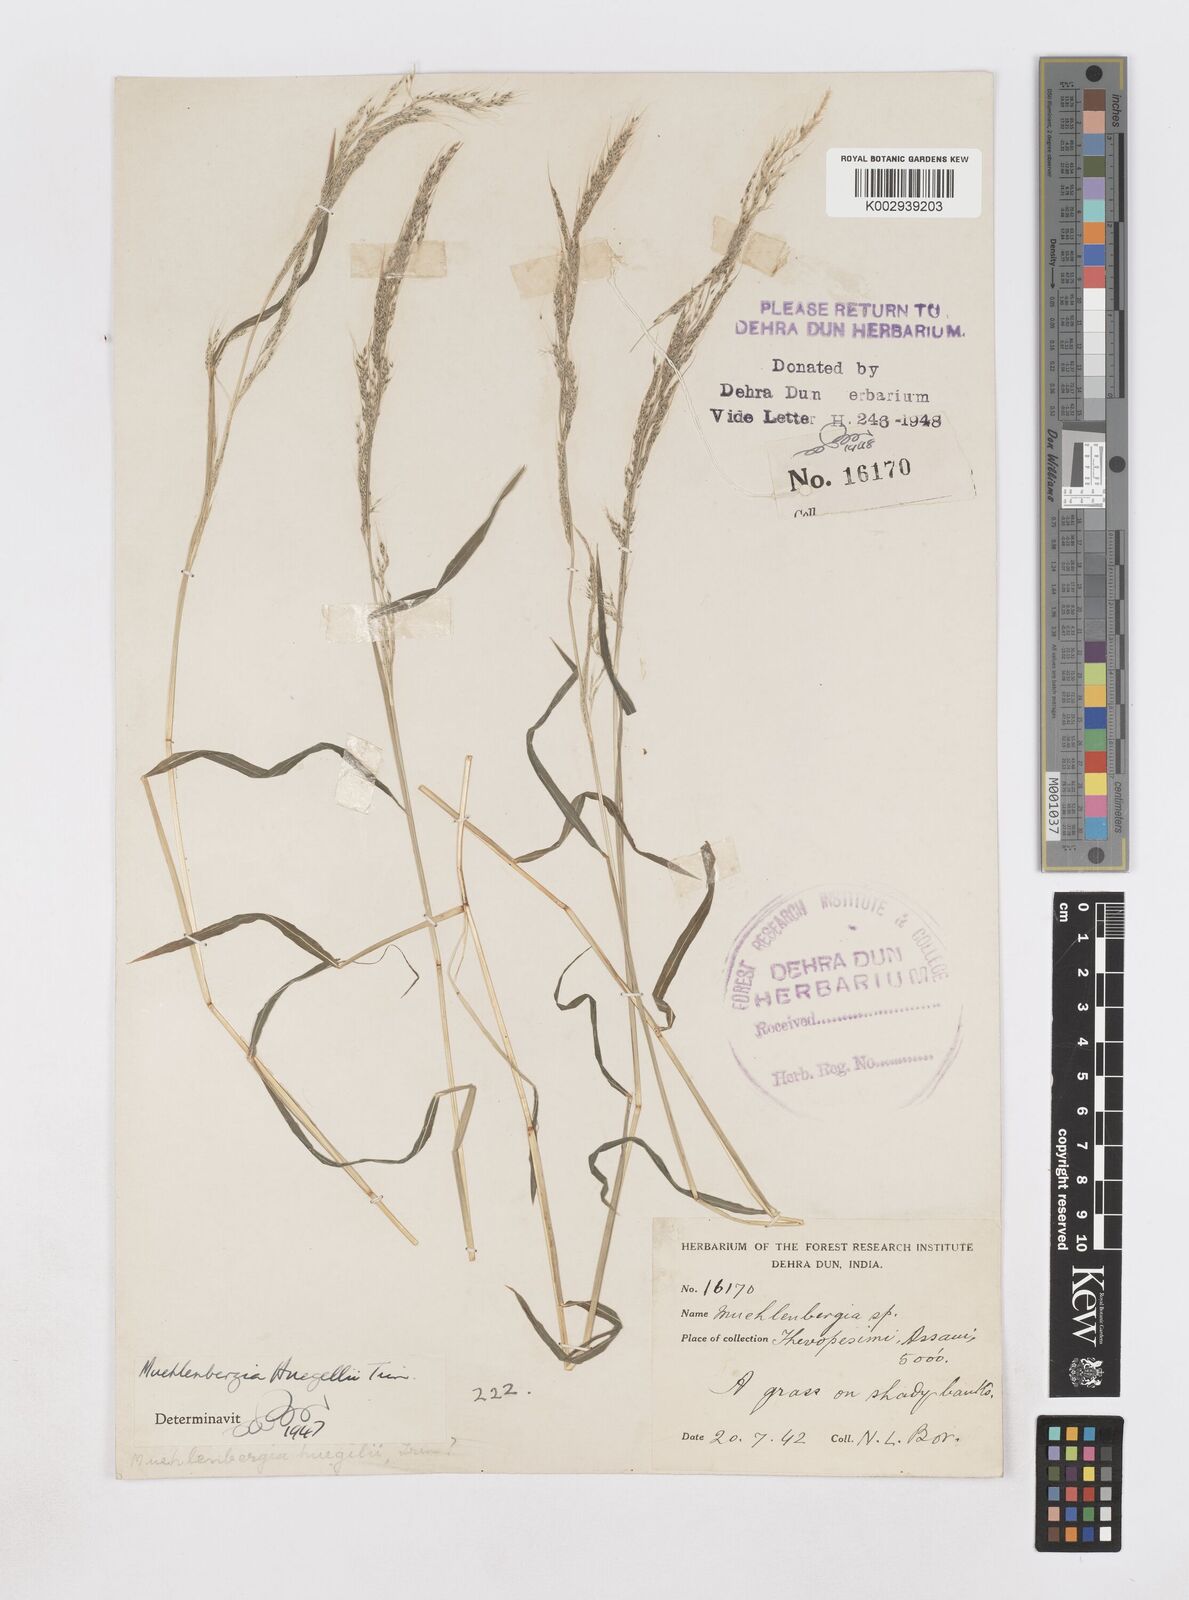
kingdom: Plantae
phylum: Tracheophyta
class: Liliopsida
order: Poales
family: Poaceae
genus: Muhlenbergia
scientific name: Muhlenbergia huegelii
